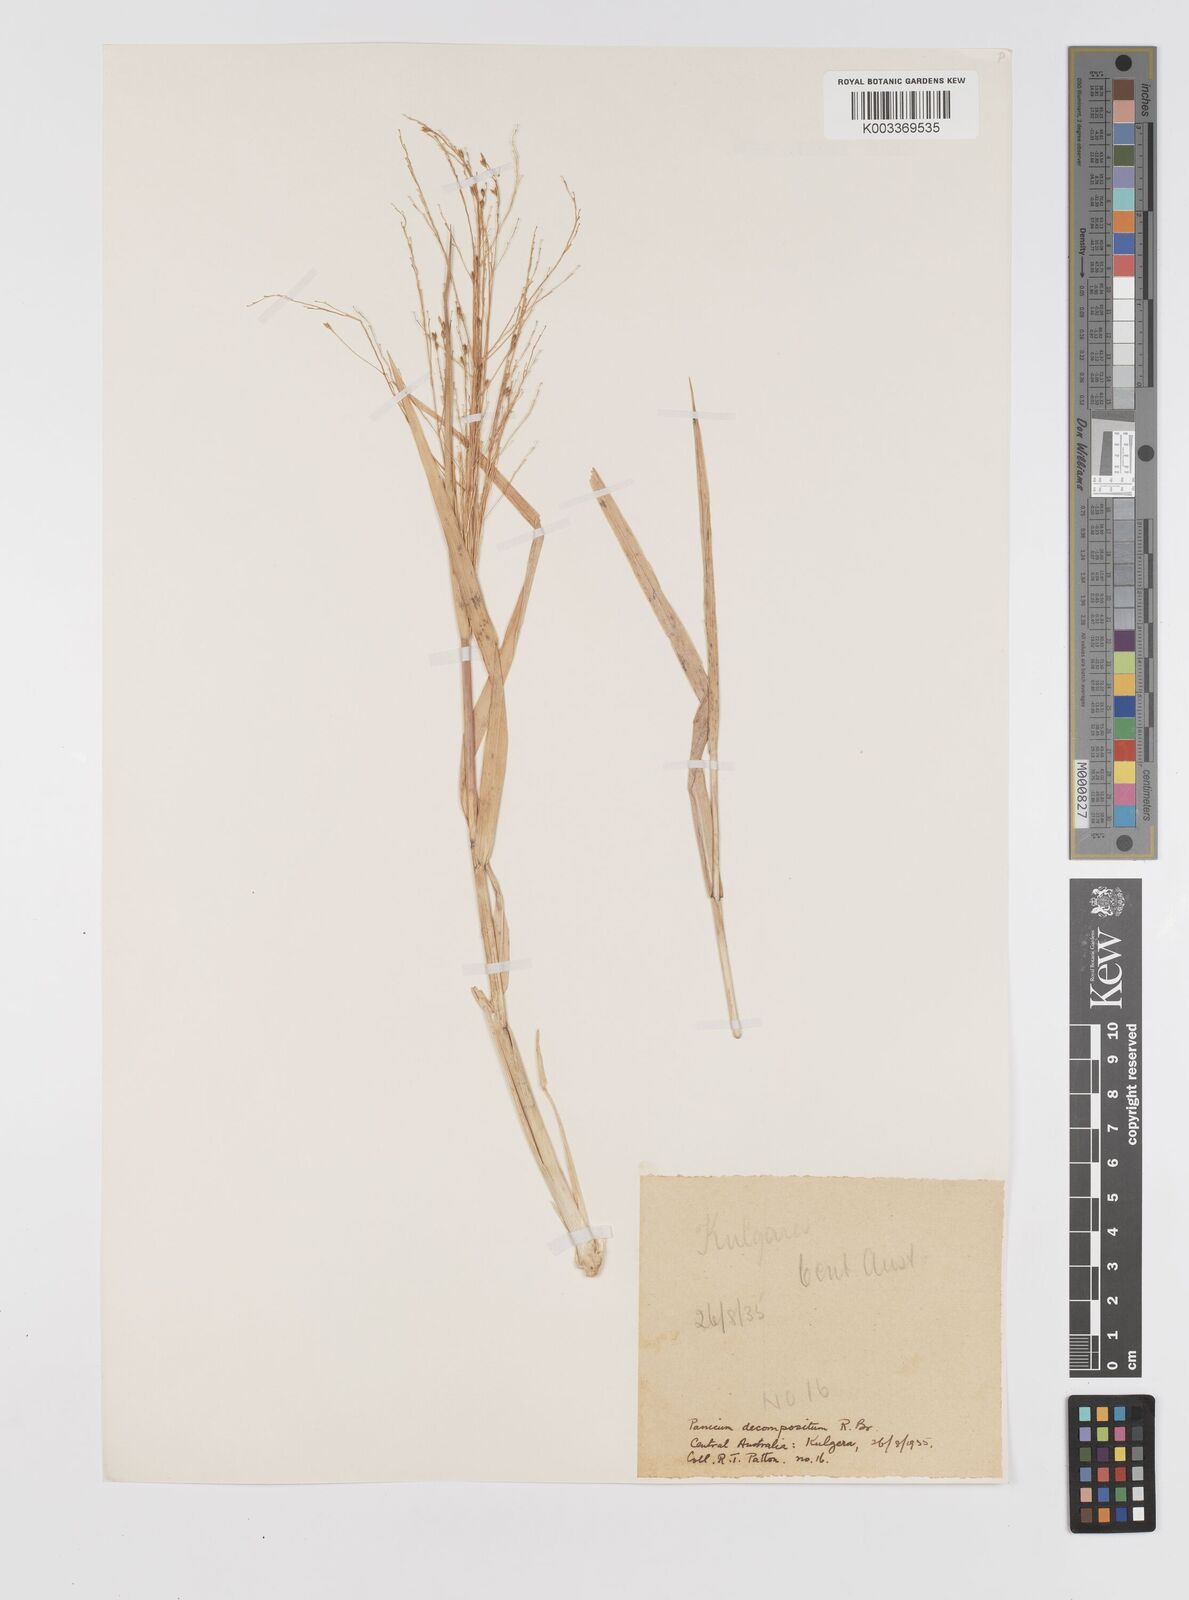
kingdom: Plantae
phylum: Tracheophyta
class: Liliopsida
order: Poales
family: Poaceae
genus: Panicum
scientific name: Panicum decompositum
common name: Australian millet
